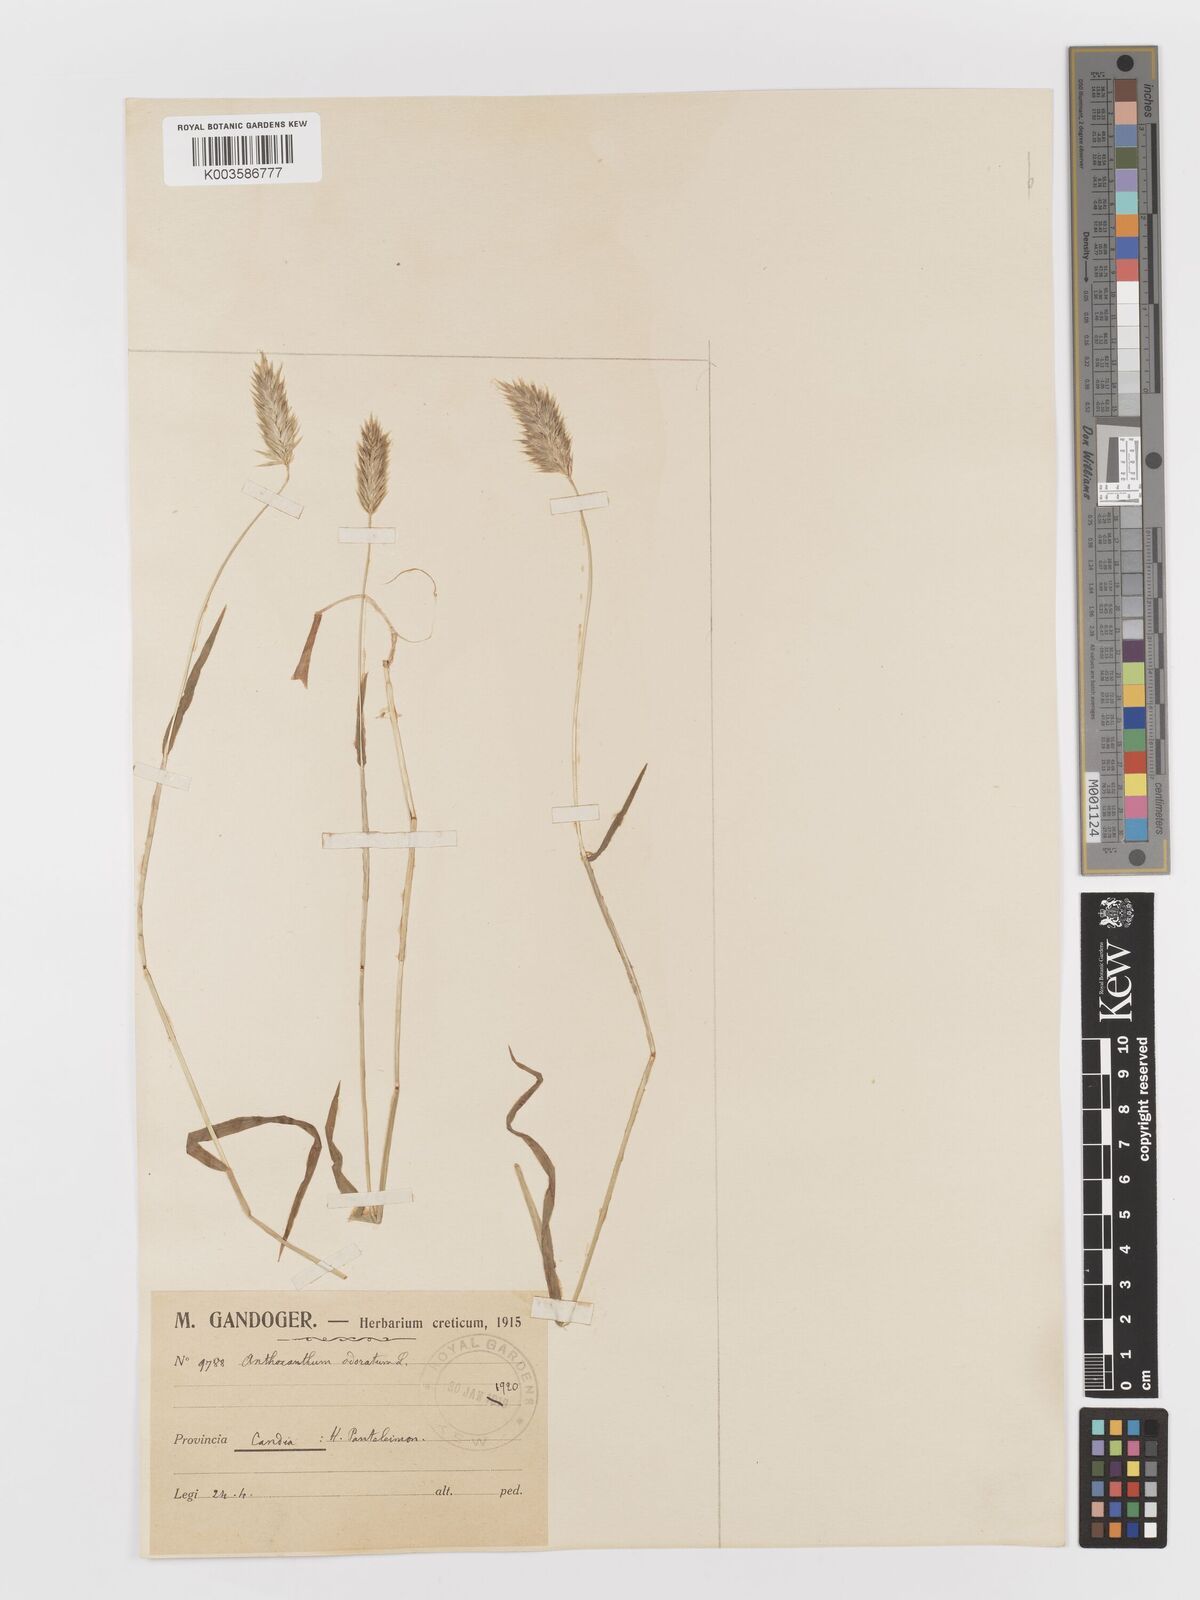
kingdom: Plantae
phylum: Tracheophyta
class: Liliopsida
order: Poales
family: Poaceae
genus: Anthoxanthum
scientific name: Anthoxanthum odoratum
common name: Sweet vernalgrass
